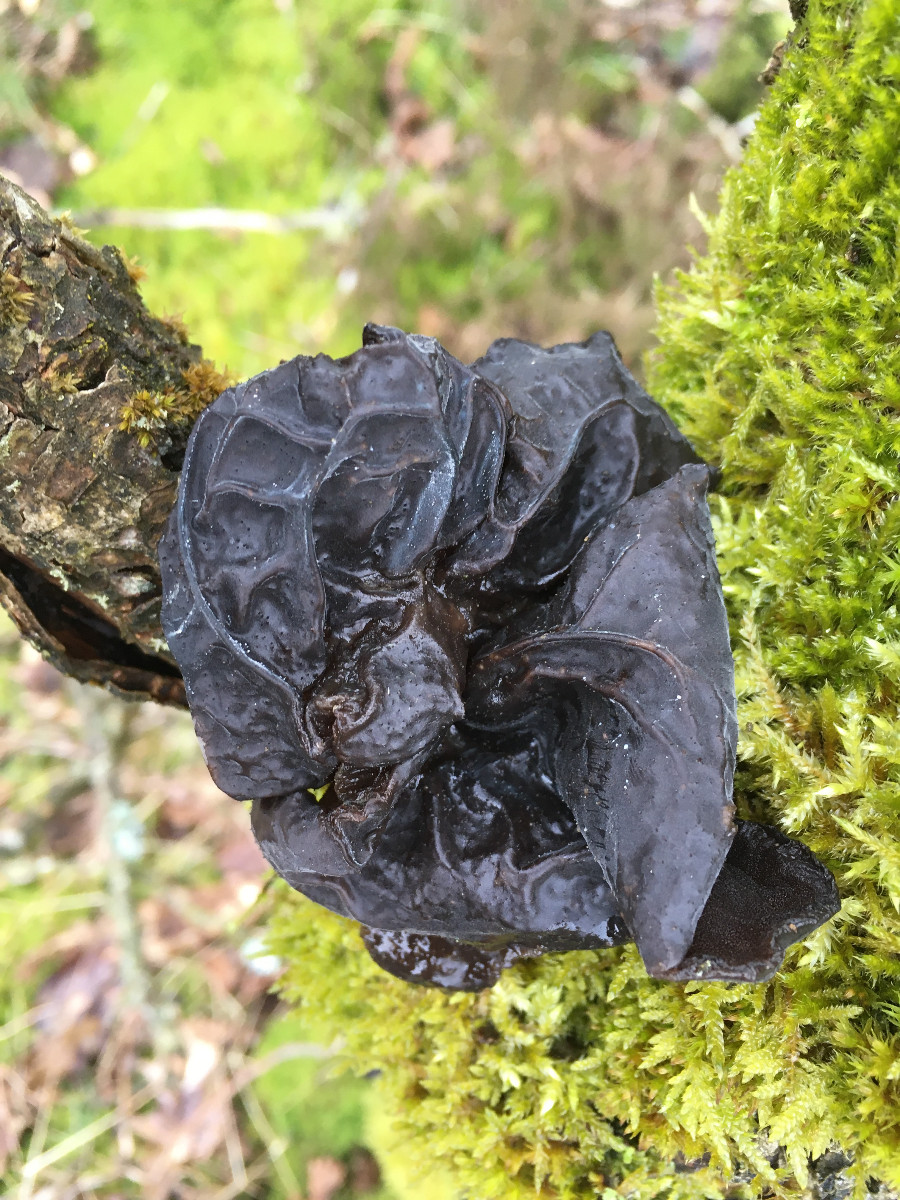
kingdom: Fungi
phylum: Basidiomycota
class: Agaricomycetes
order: Auriculariales
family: Auriculariaceae
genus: Exidia
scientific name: Exidia glandulosa
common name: ege-bævretop
